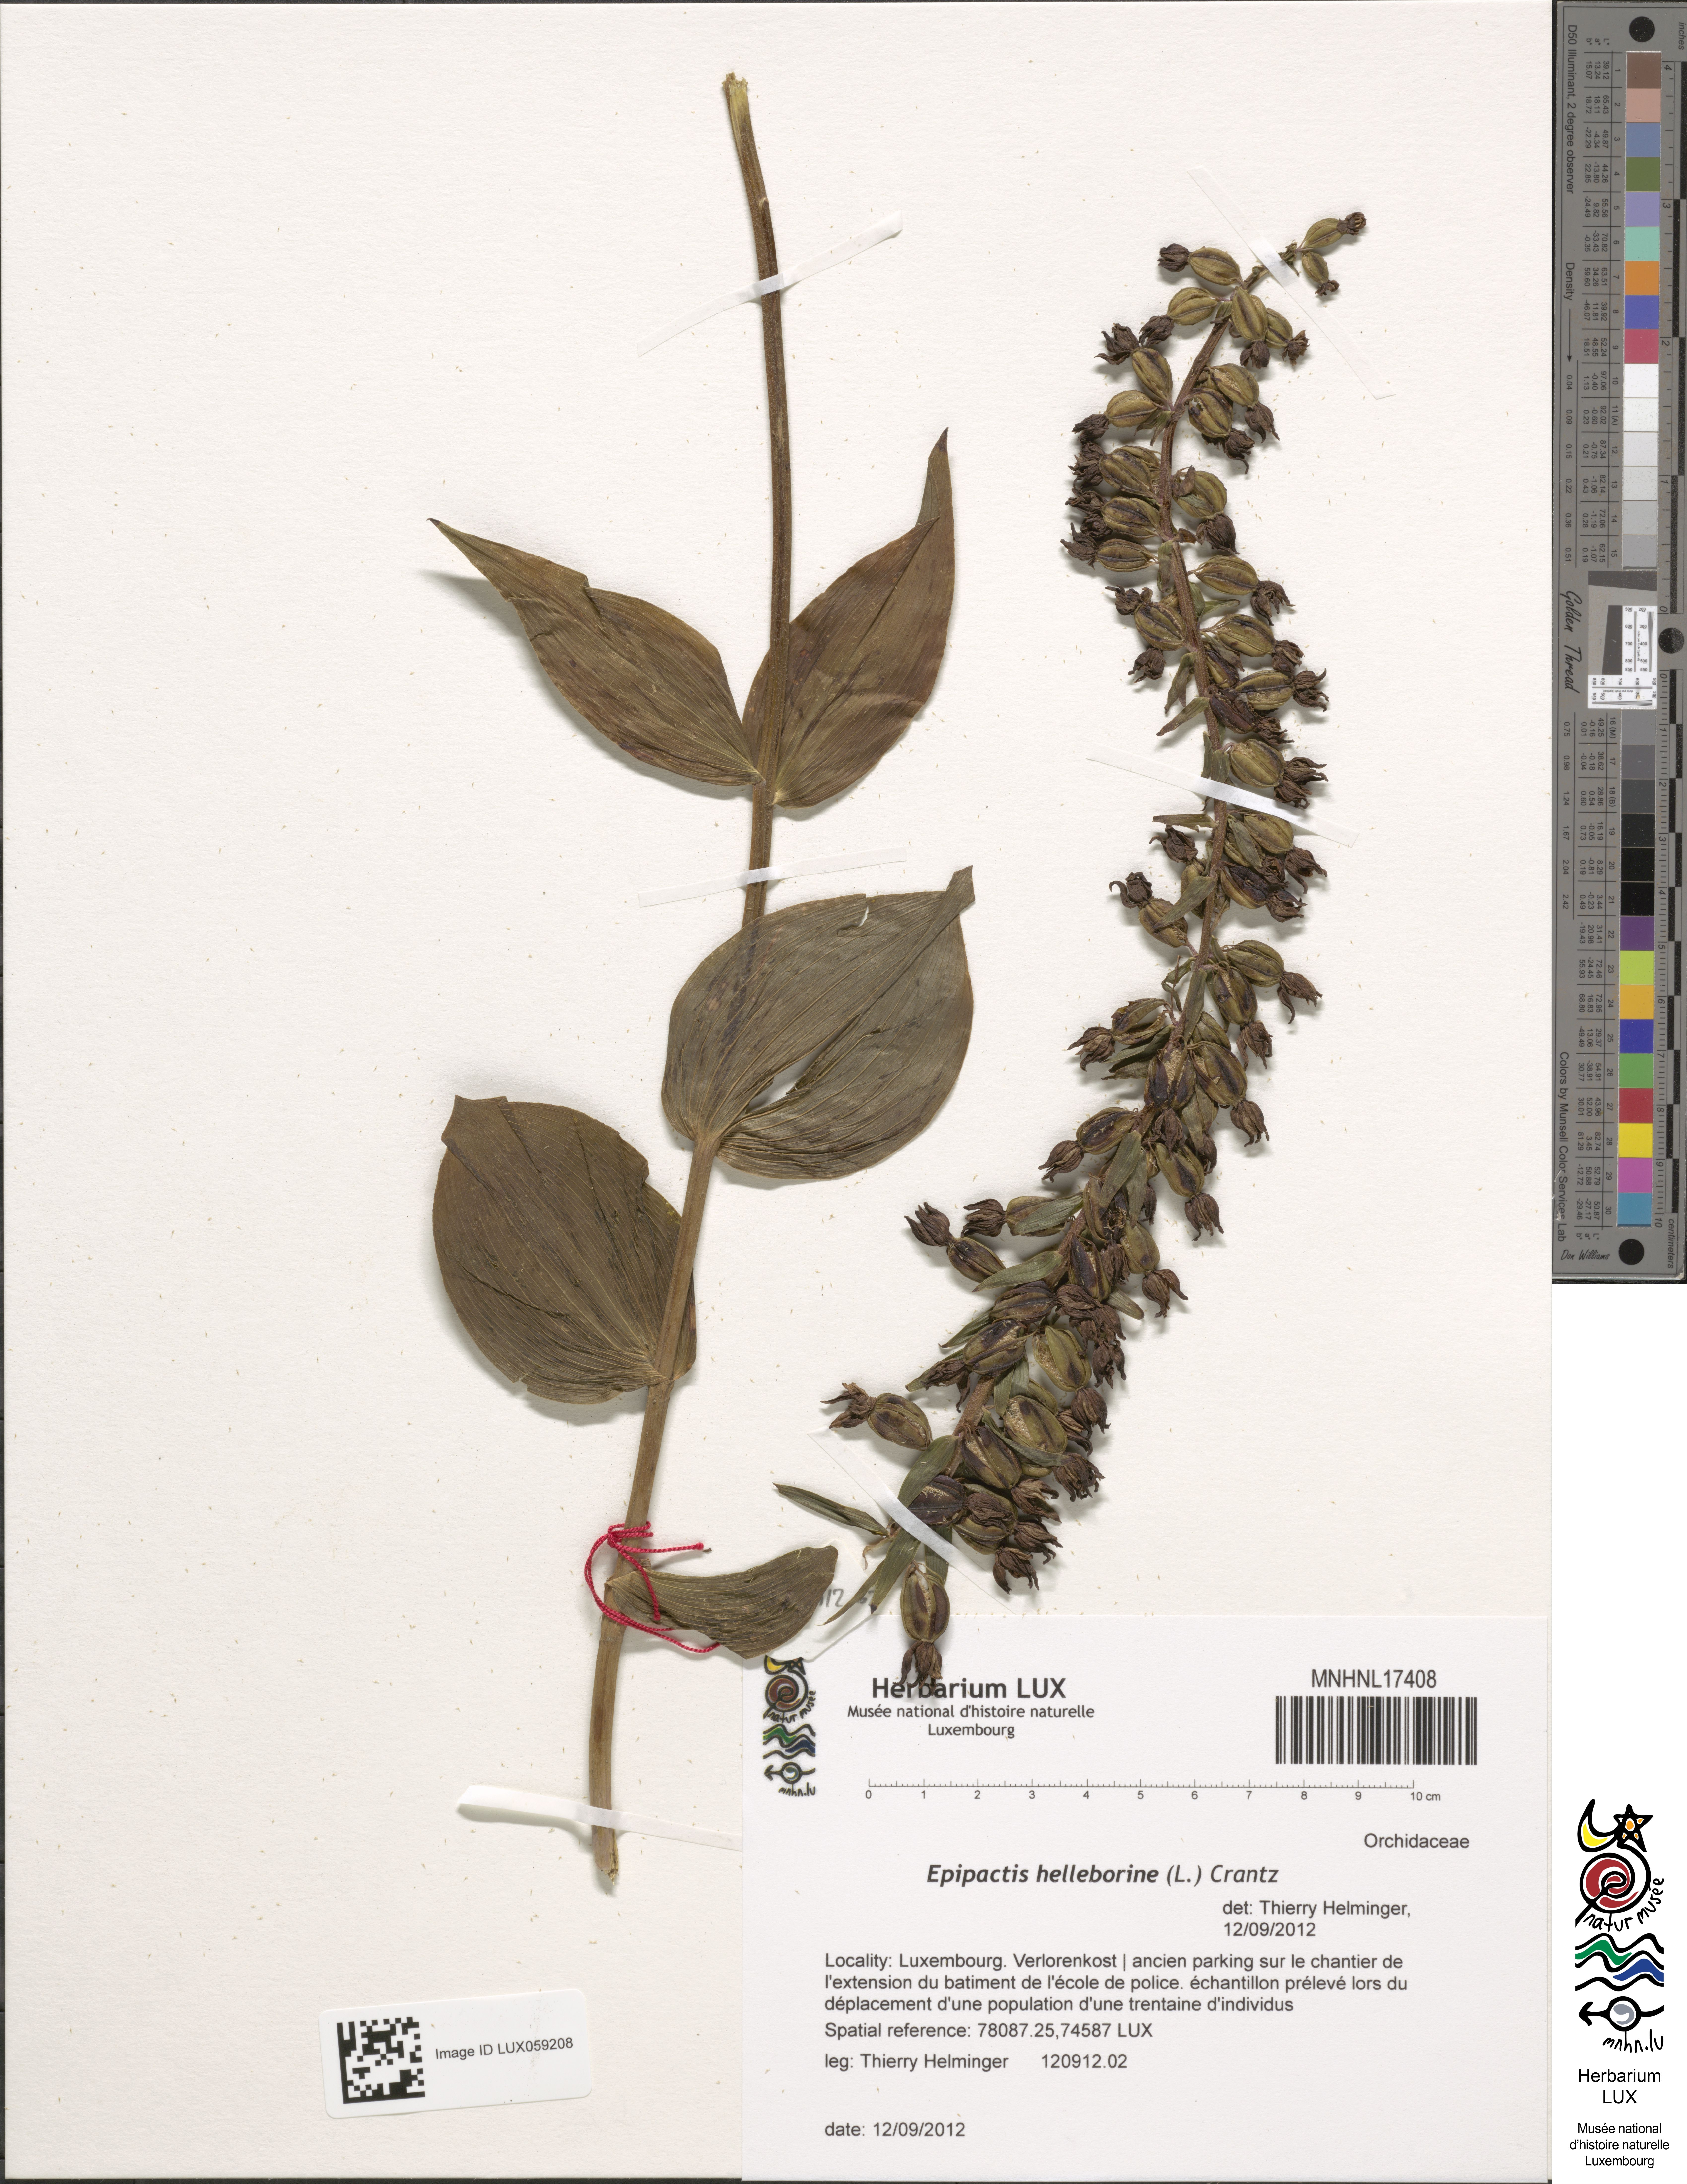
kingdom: Plantae
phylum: Tracheophyta
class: Liliopsida
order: Asparagales
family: Orchidaceae
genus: Epipactis
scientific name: Epipactis helleborine
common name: Broad-leaved helleborine
